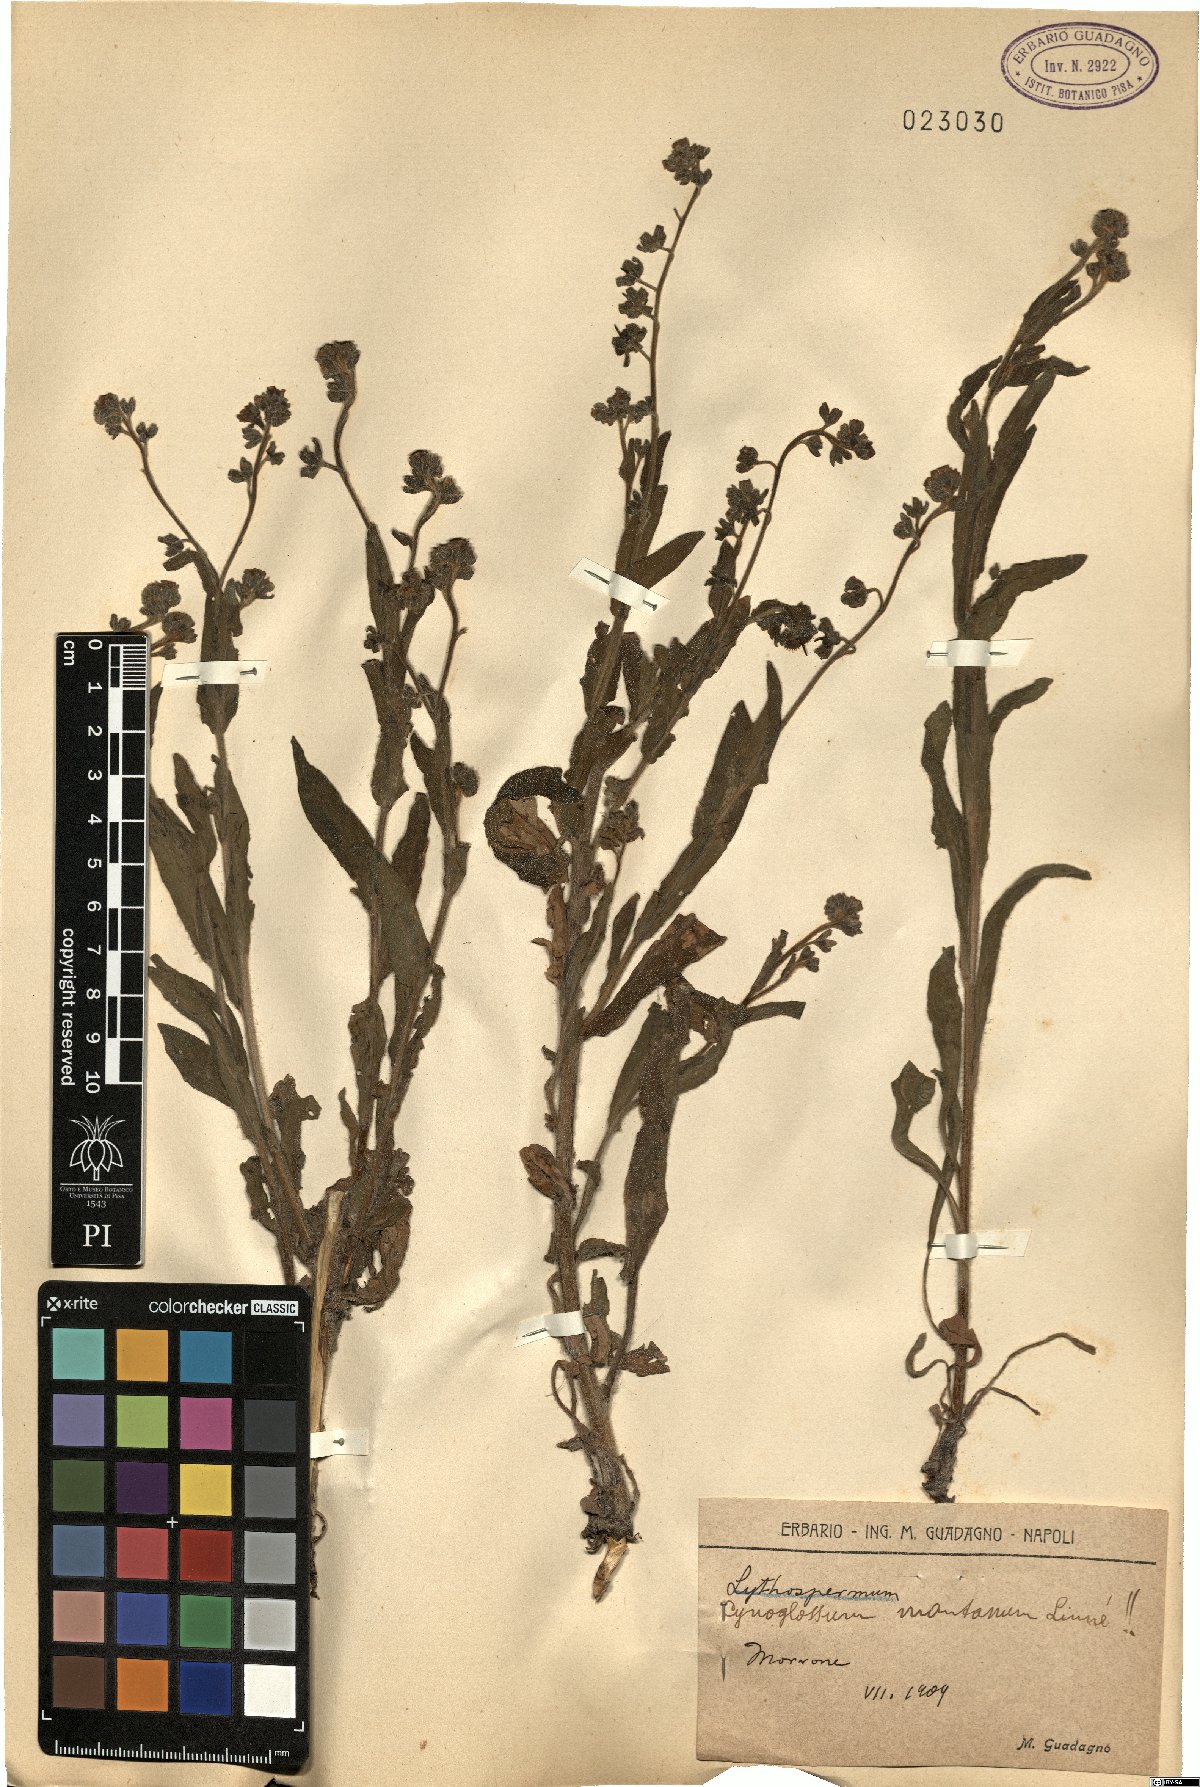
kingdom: Plantae
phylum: Tracheophyta
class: Magnoliopsida
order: Boraginales
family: Boraginaceae
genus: Cynoglossum
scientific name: Cynoglossum montanum
